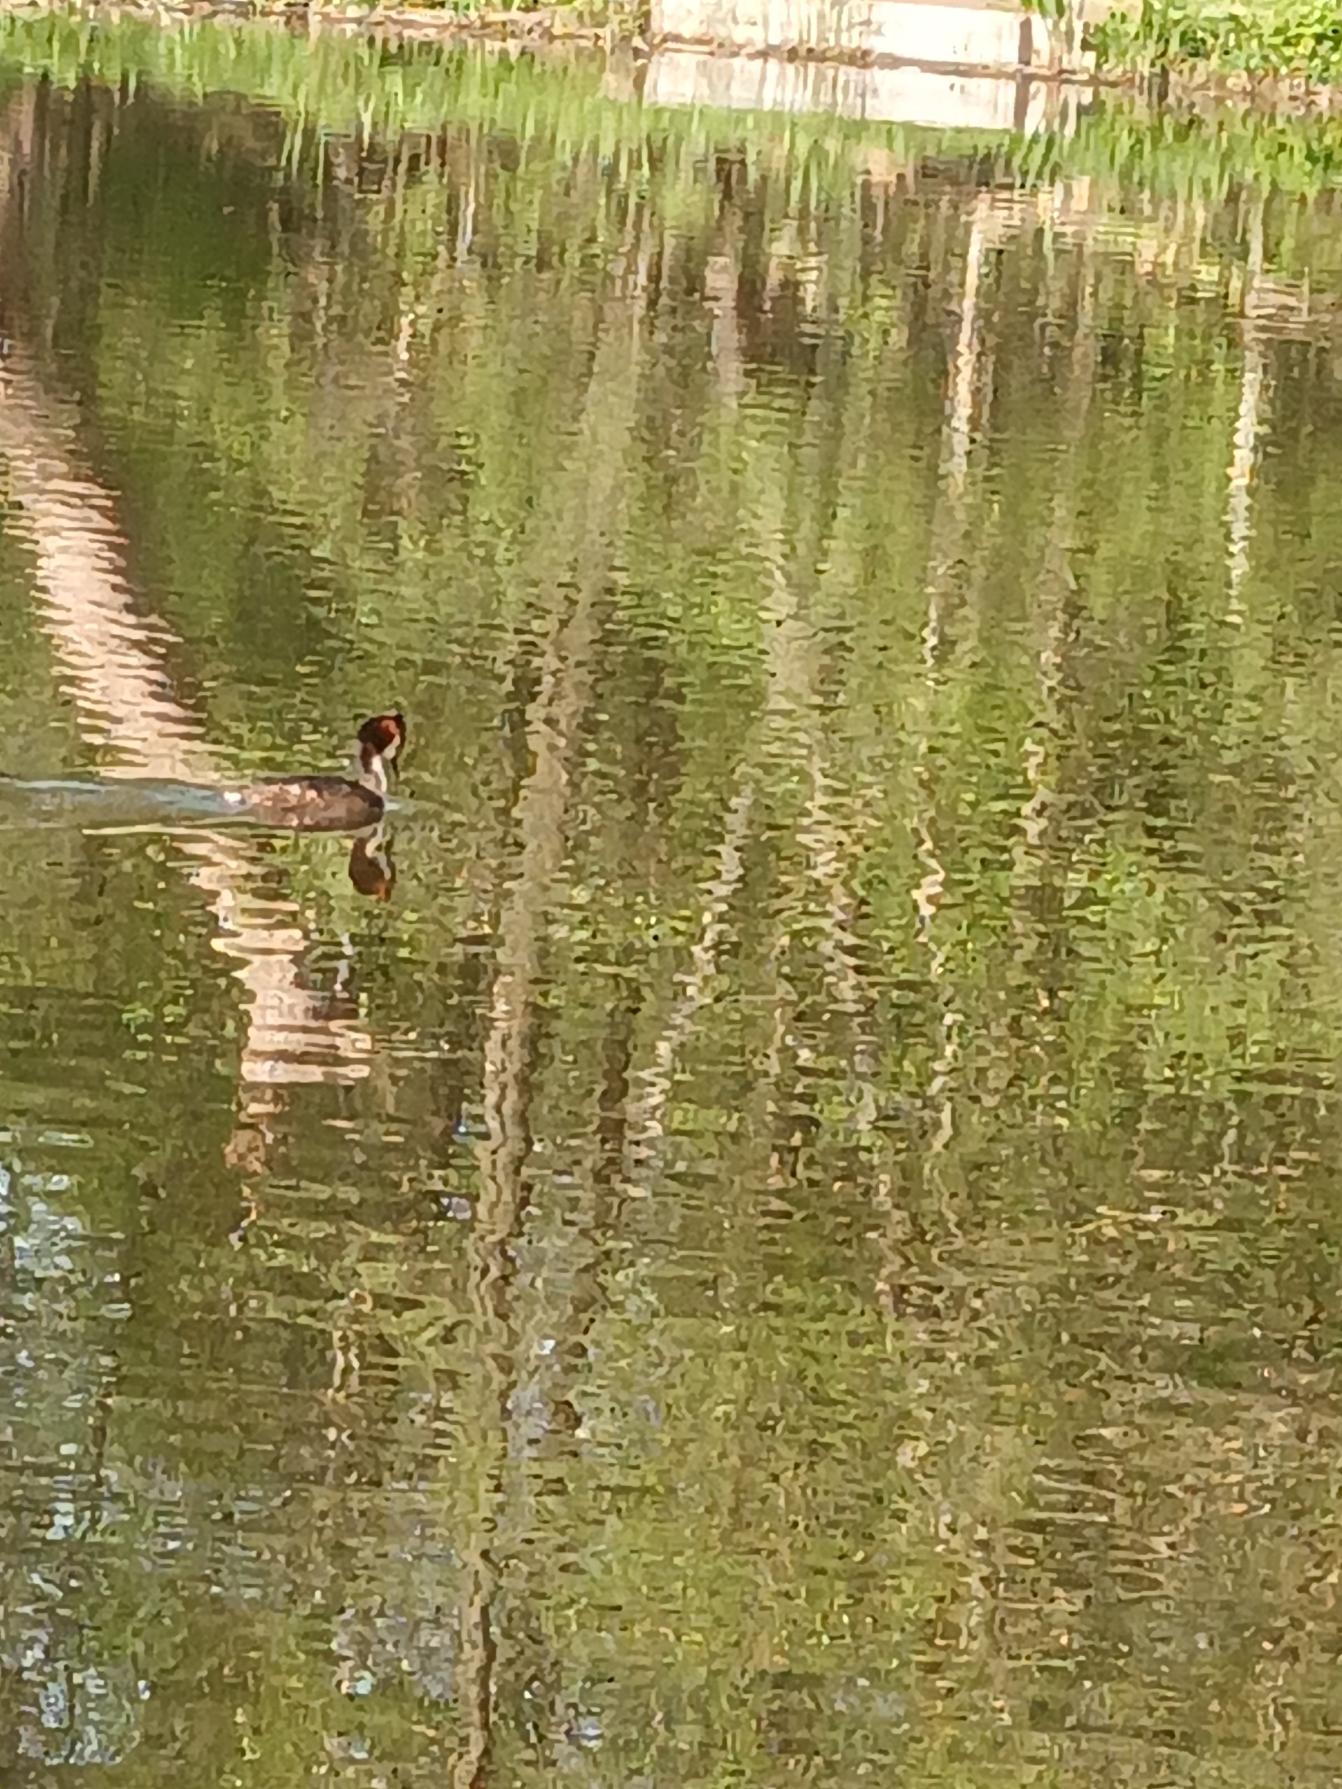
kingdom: Animalia
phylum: Chordata
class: Aves
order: Podicipediformes
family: Podicipedidae
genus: Podiceps
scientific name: Podiceps cristatus
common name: Toppet lappedykker
